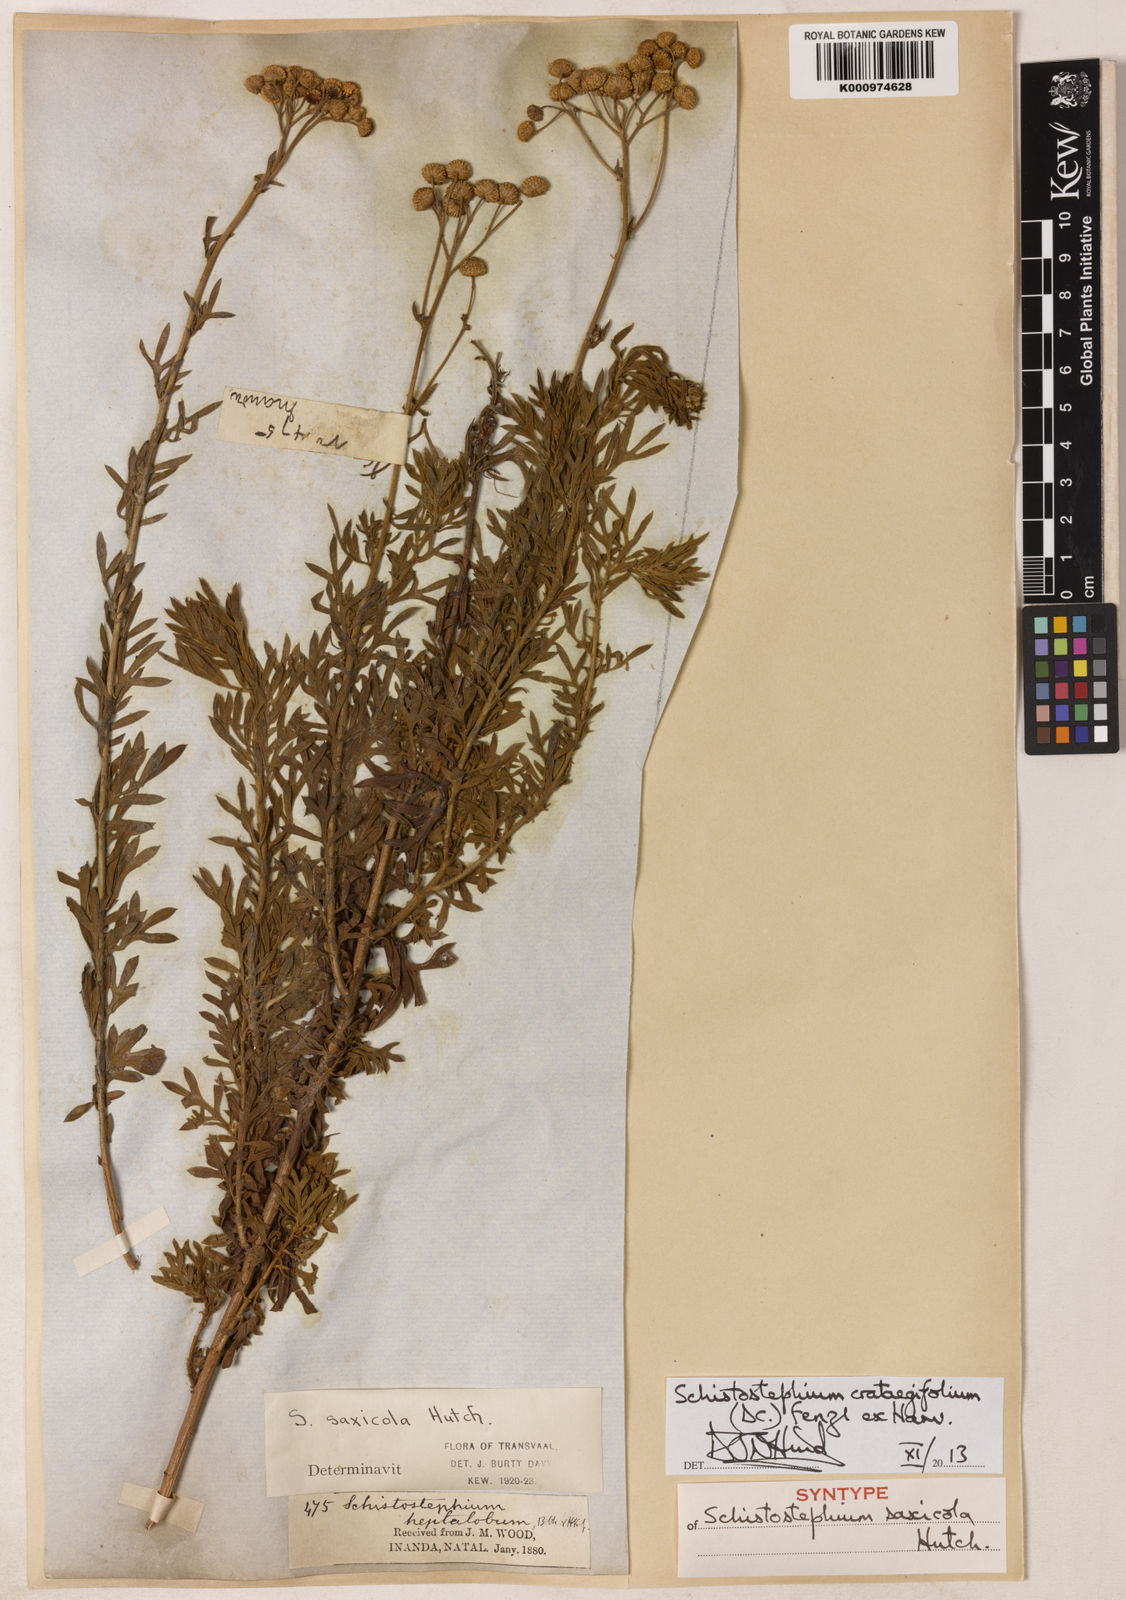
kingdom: Plantae
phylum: Tracheophyta
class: Magnoliopsida
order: Asterales
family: Asteraceae
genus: Schistostephium
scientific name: Schistostephium crataegifolium
